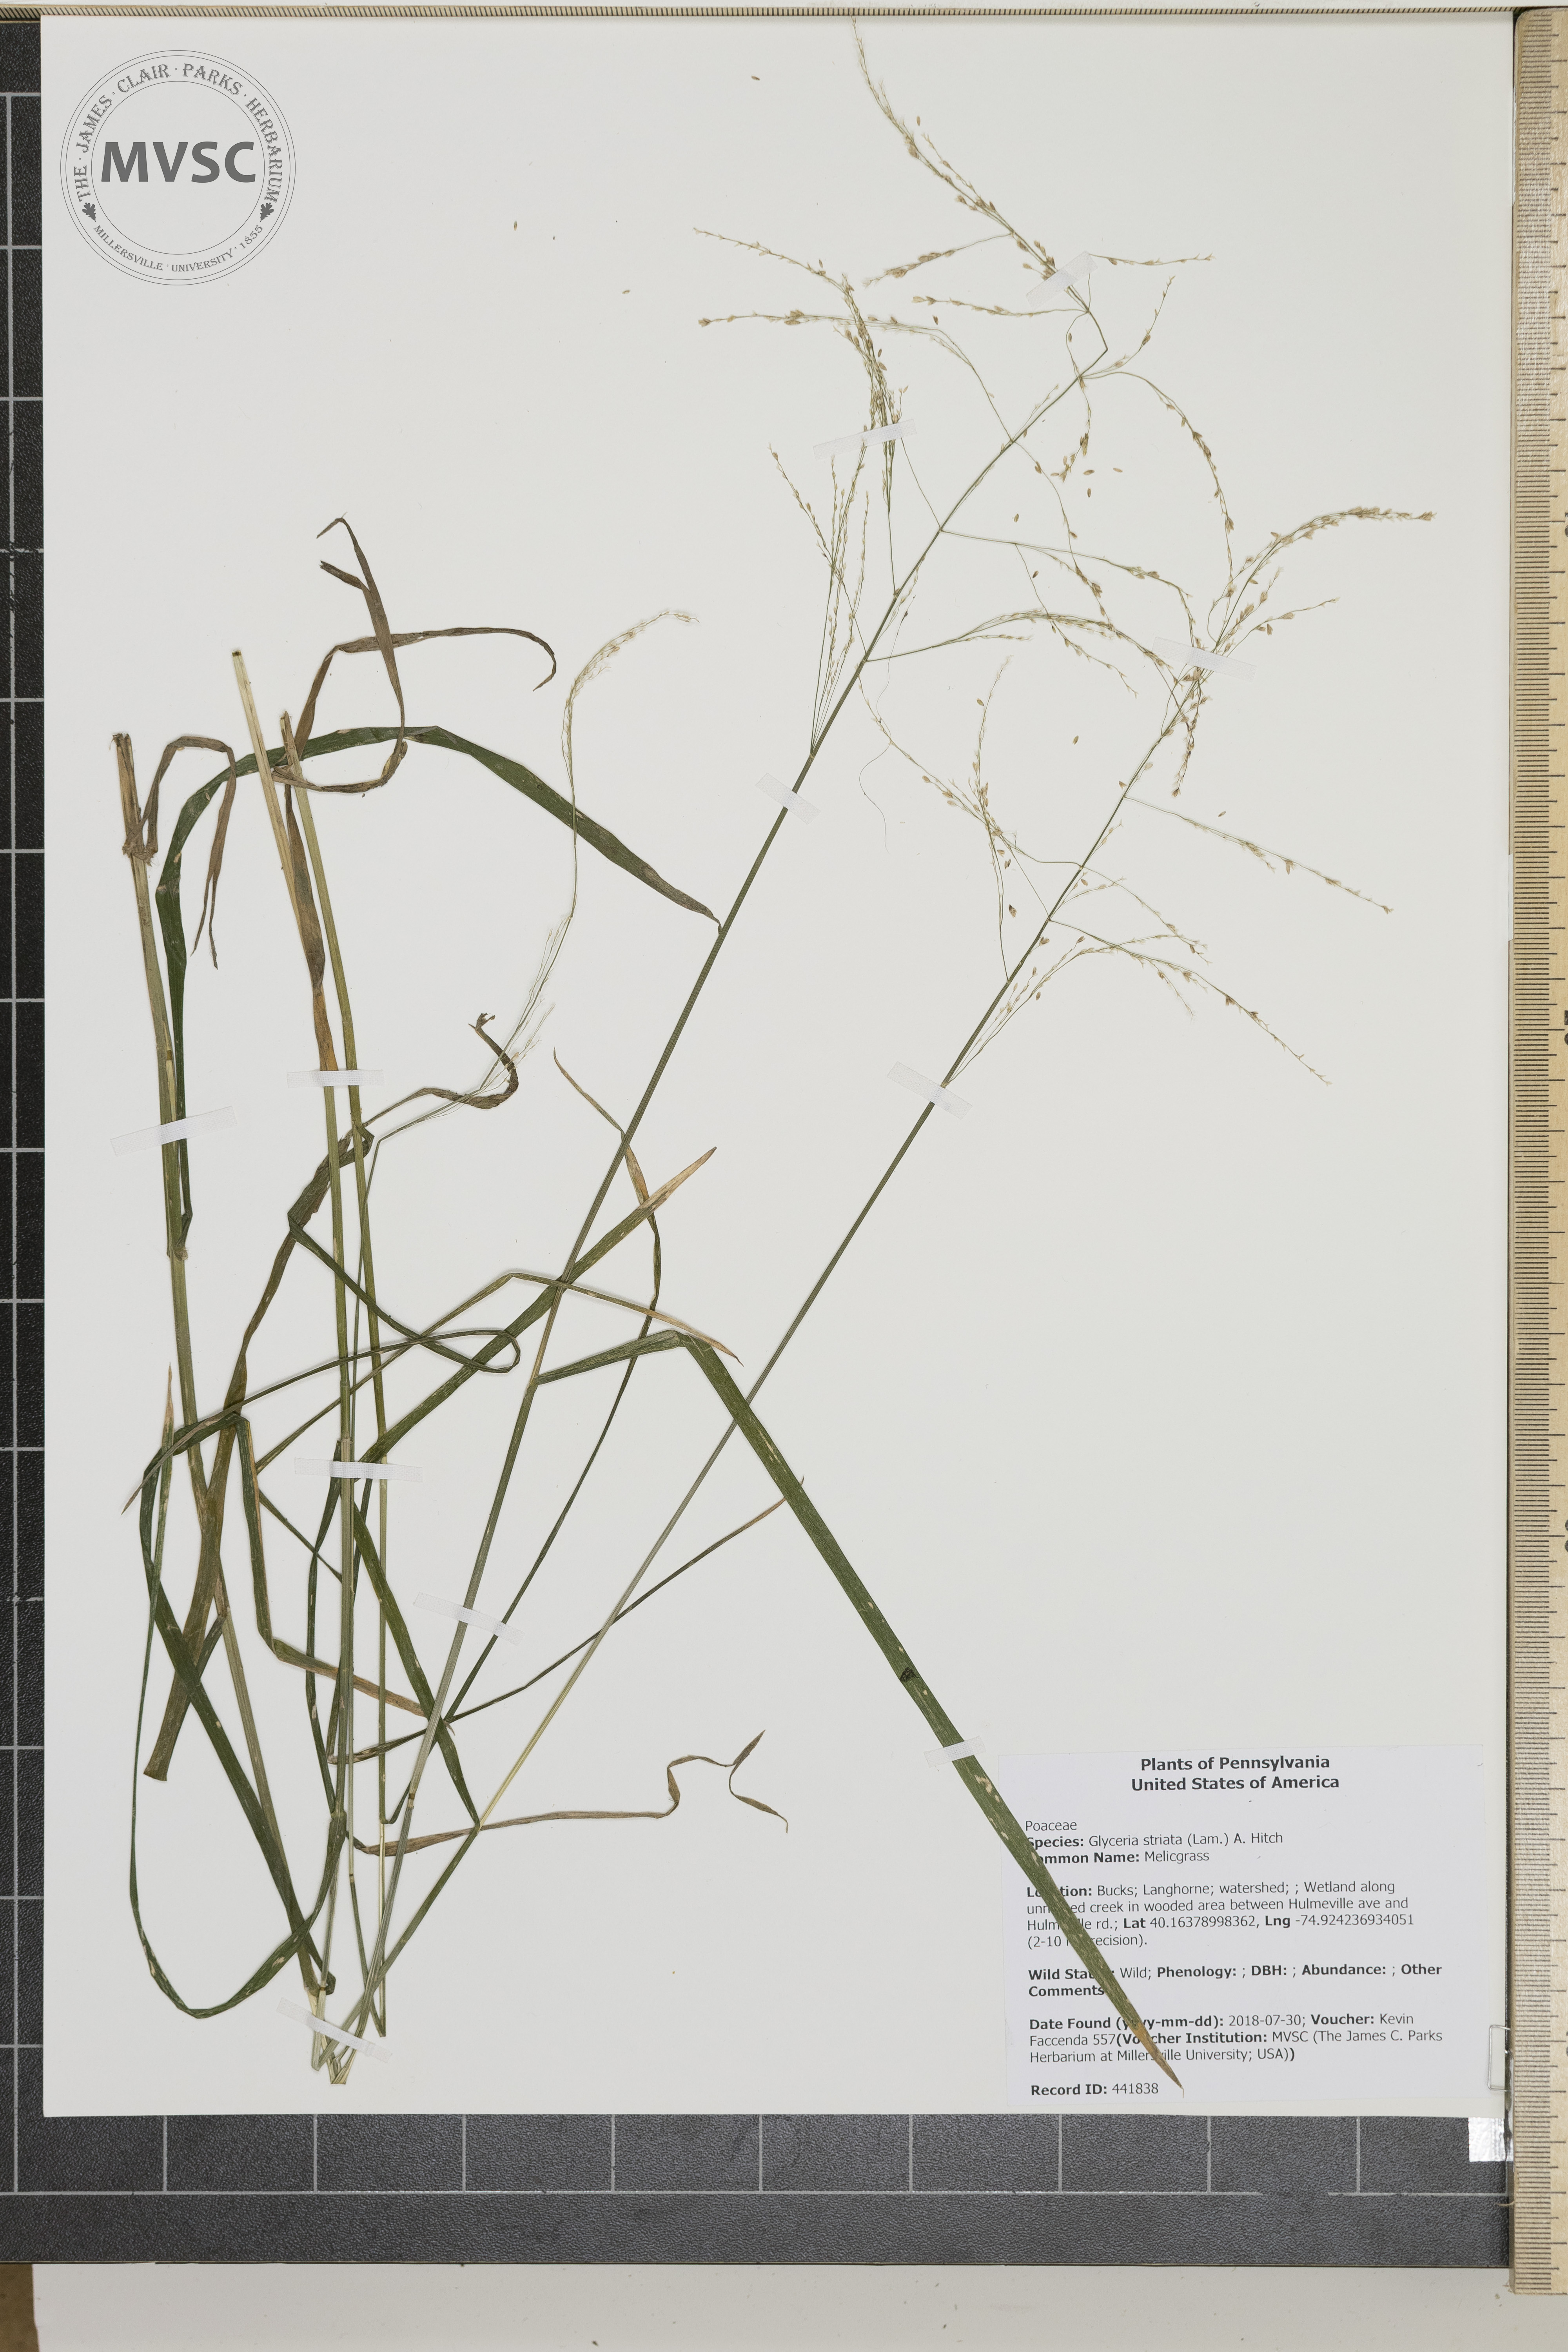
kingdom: Plantae
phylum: Tracheophyta
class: Liliopsida
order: Poales
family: Poaceae
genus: Glyceria
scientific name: Glyceria striata
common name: Melicgrass
